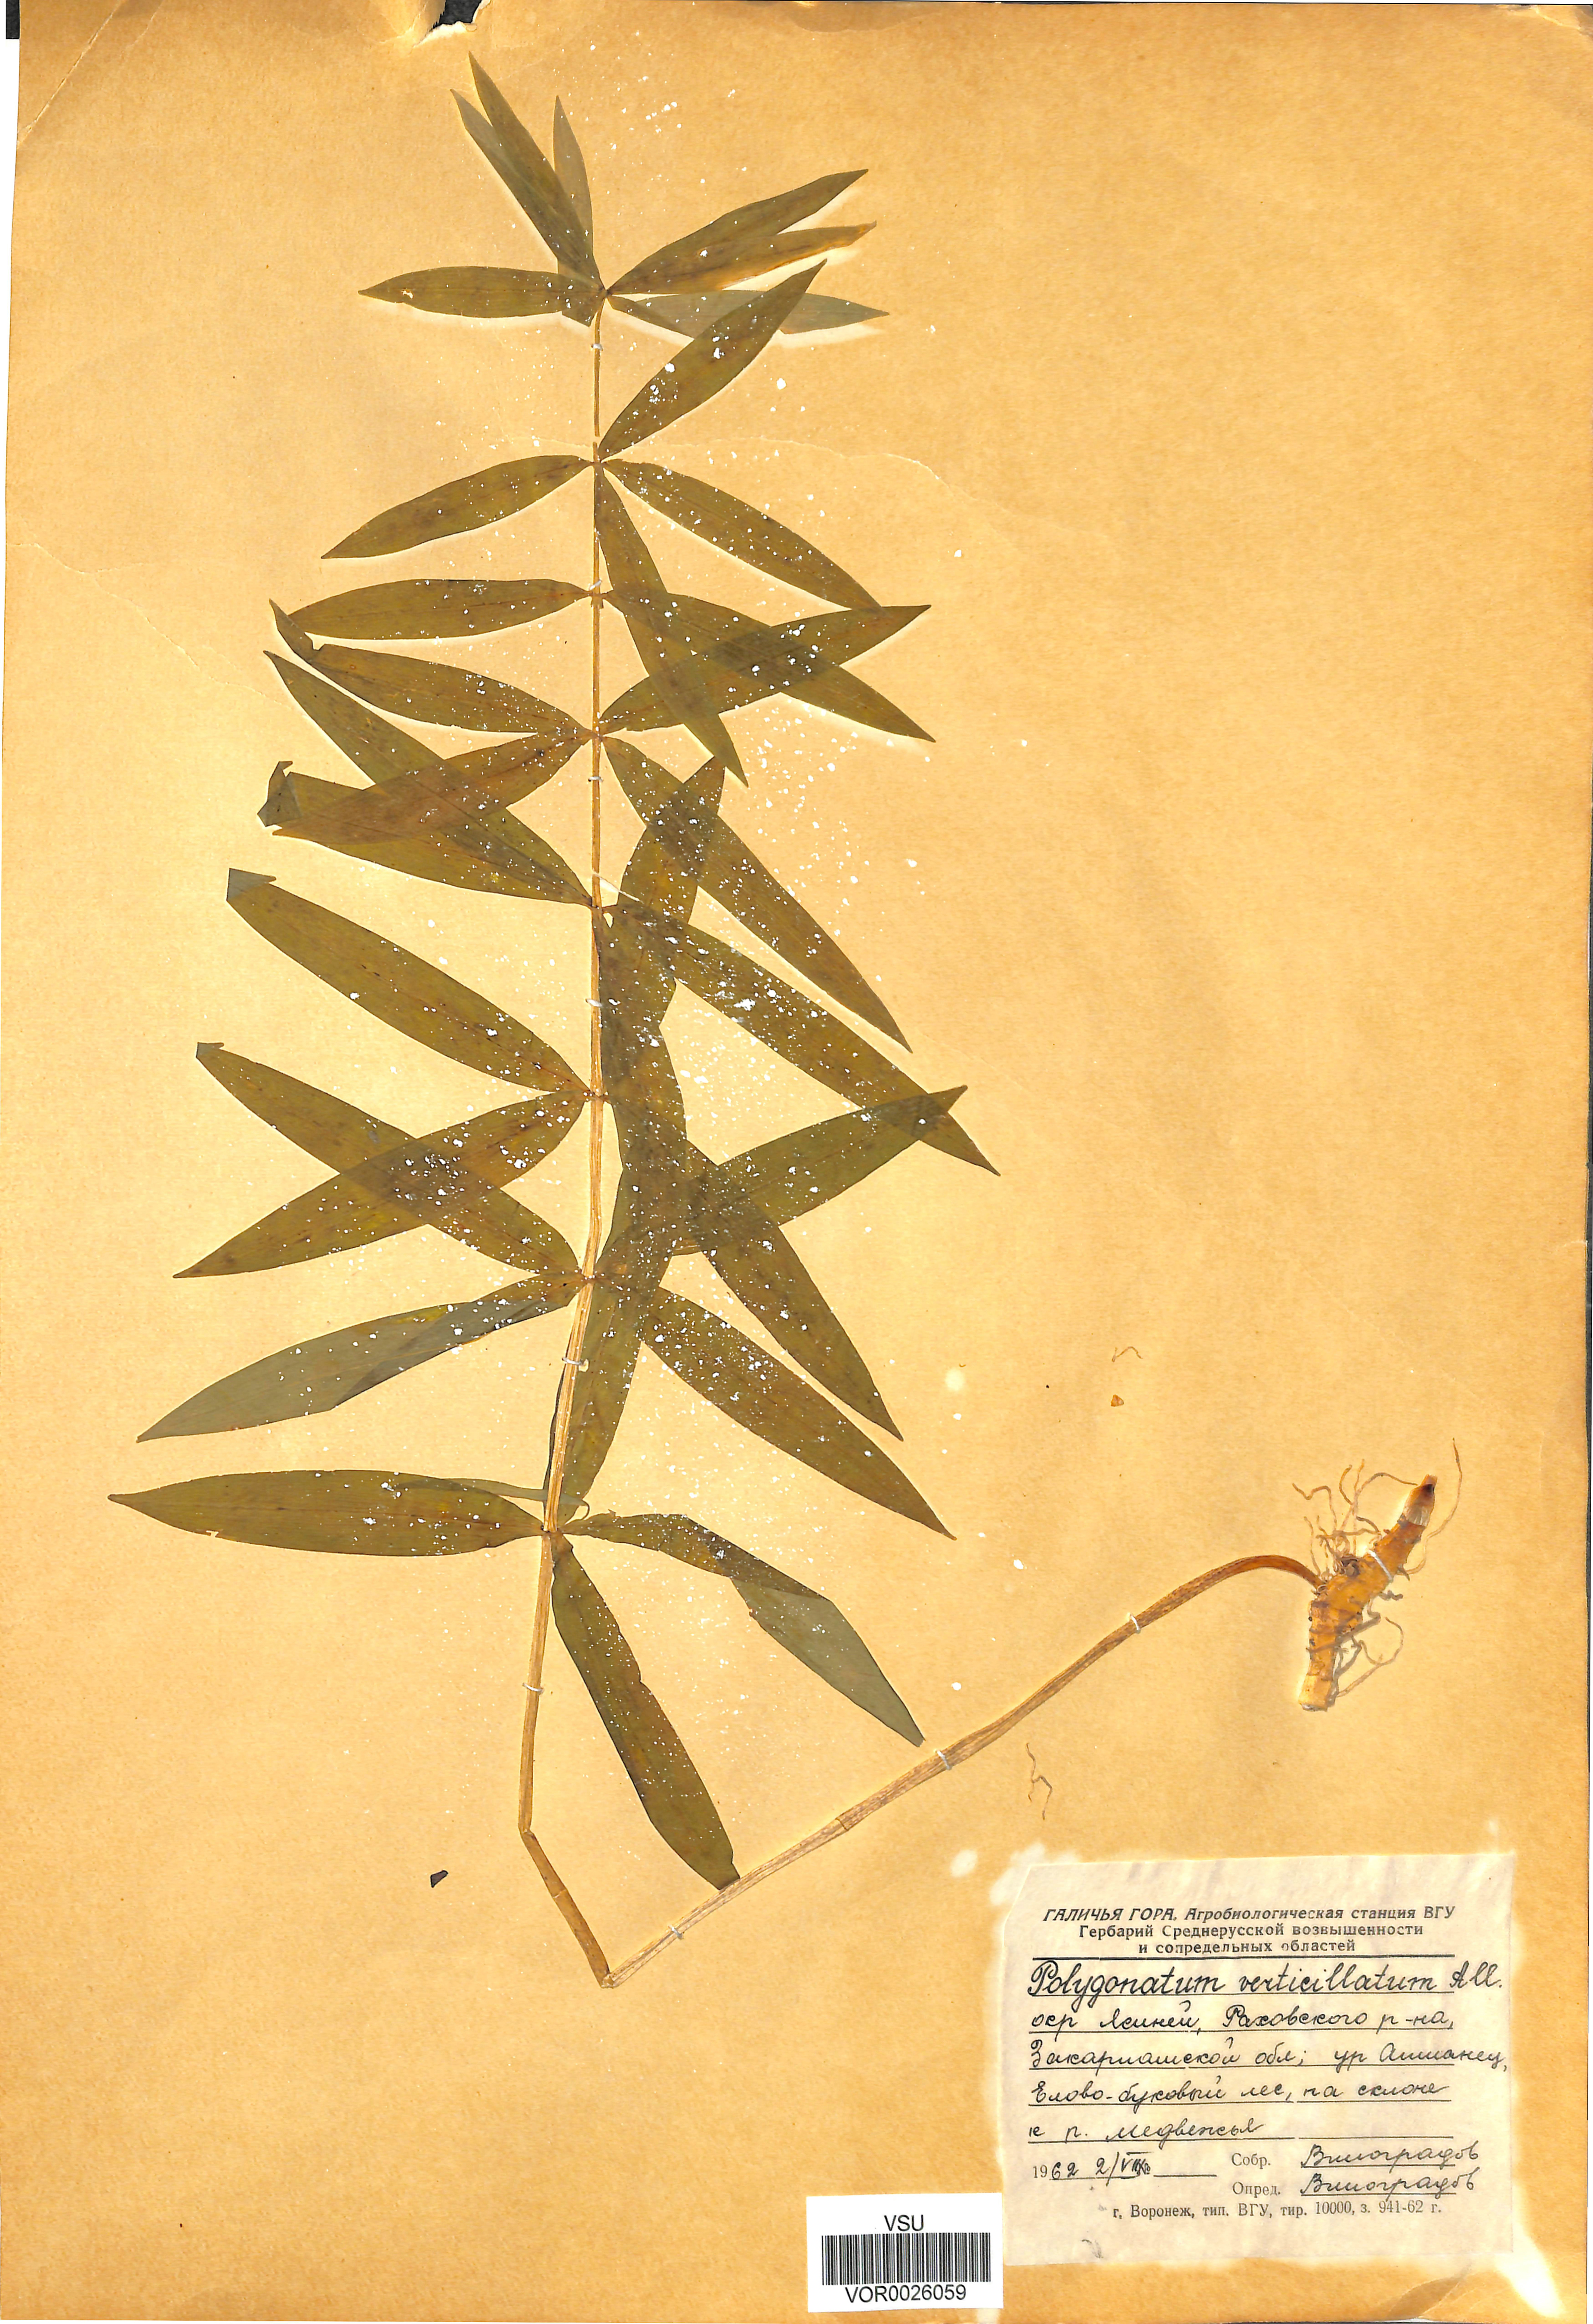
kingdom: Plantae
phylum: Tracheophyta
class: Liliopsida
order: Asparagales
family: Asparagaceae
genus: Polygonatum
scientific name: Polygonatum multiflorum
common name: Solomon's-seal
